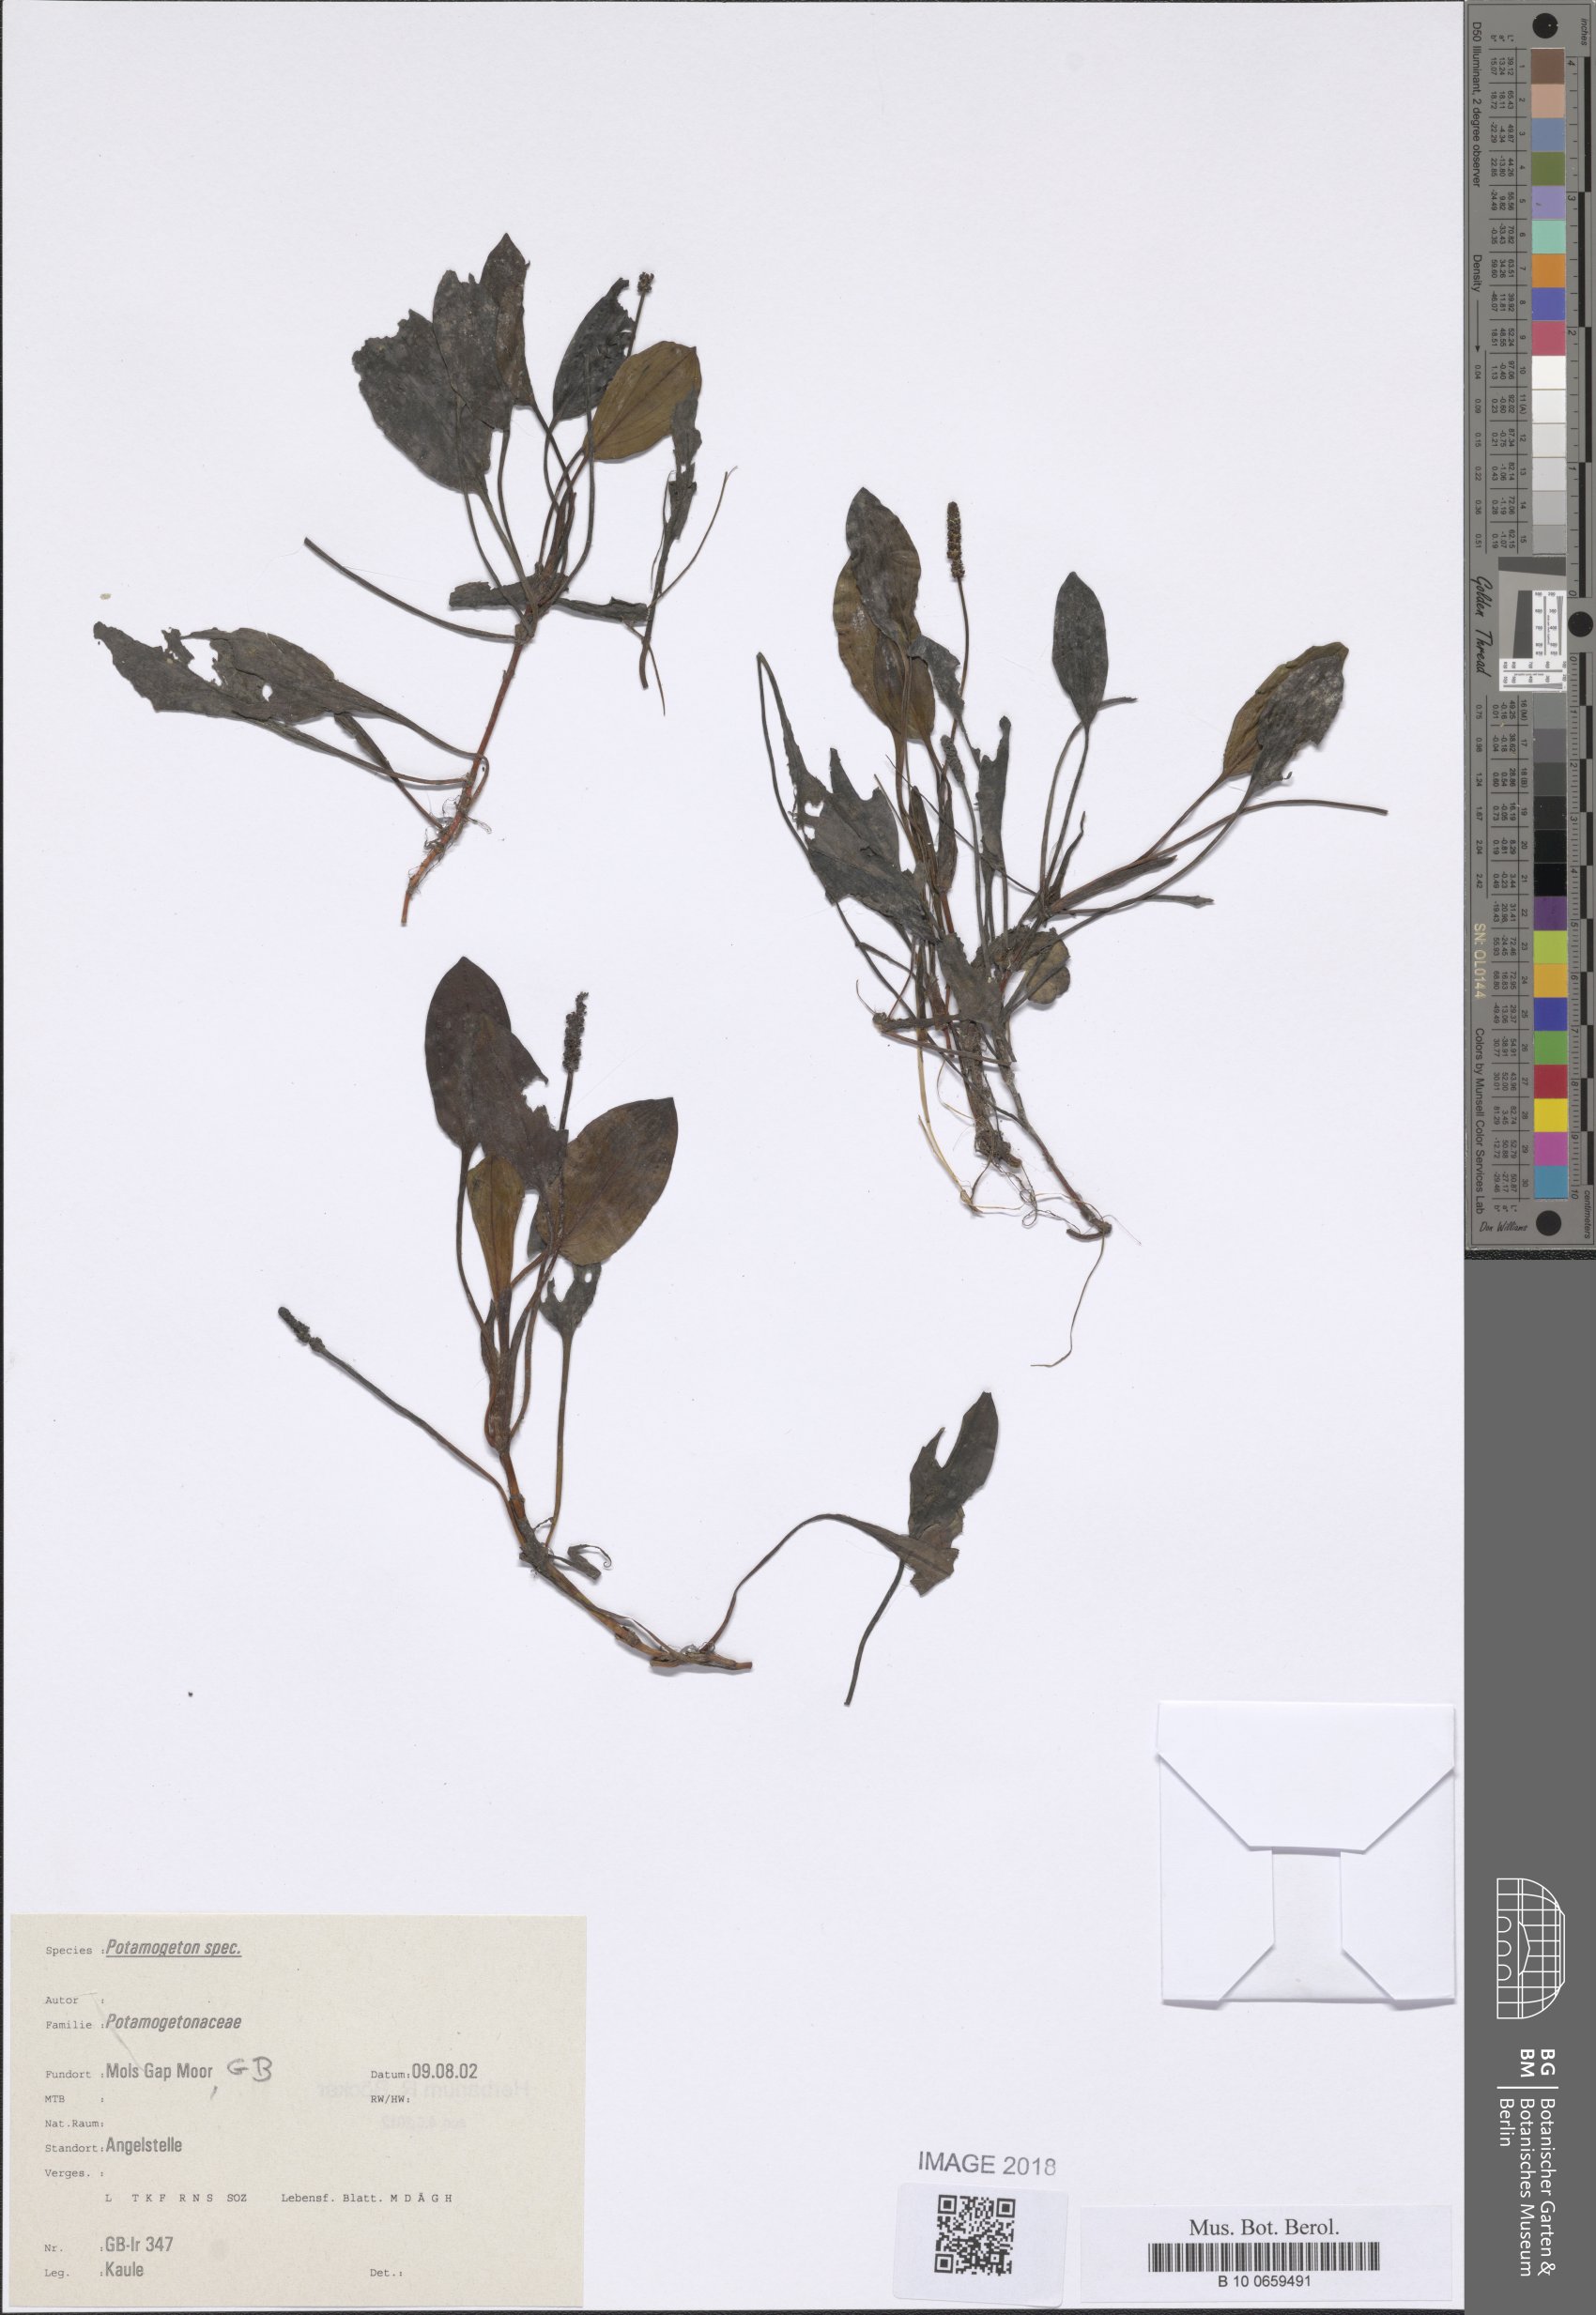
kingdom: Plantae
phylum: Tracheophyta
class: Liliopsida
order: Alismatales
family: Potamogetonaceae
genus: Potamogeton
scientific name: Potamogeton polygonifolius
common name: Bog pondweed
